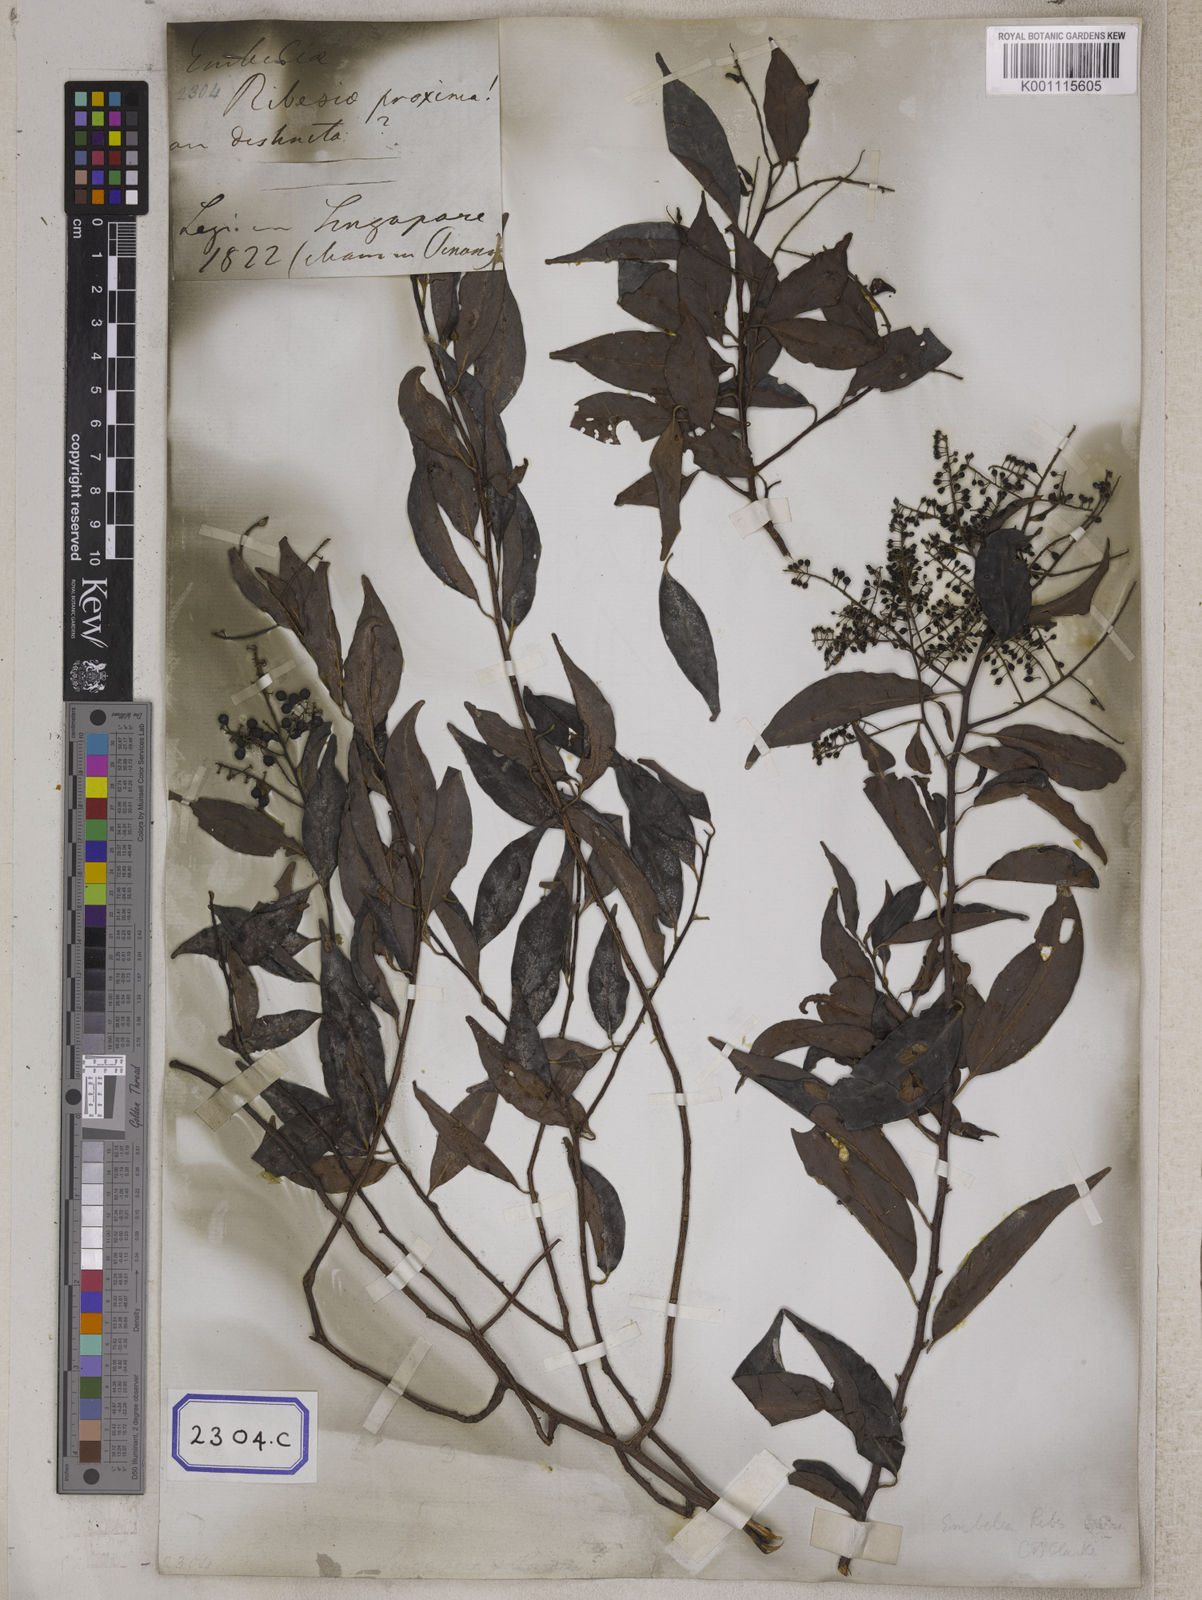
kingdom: Plantae
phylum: Tracheophyta
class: Magnoliopsida
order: Ericales
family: Primulaceae
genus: Embelia
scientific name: Embelia ribes
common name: Vidanga
